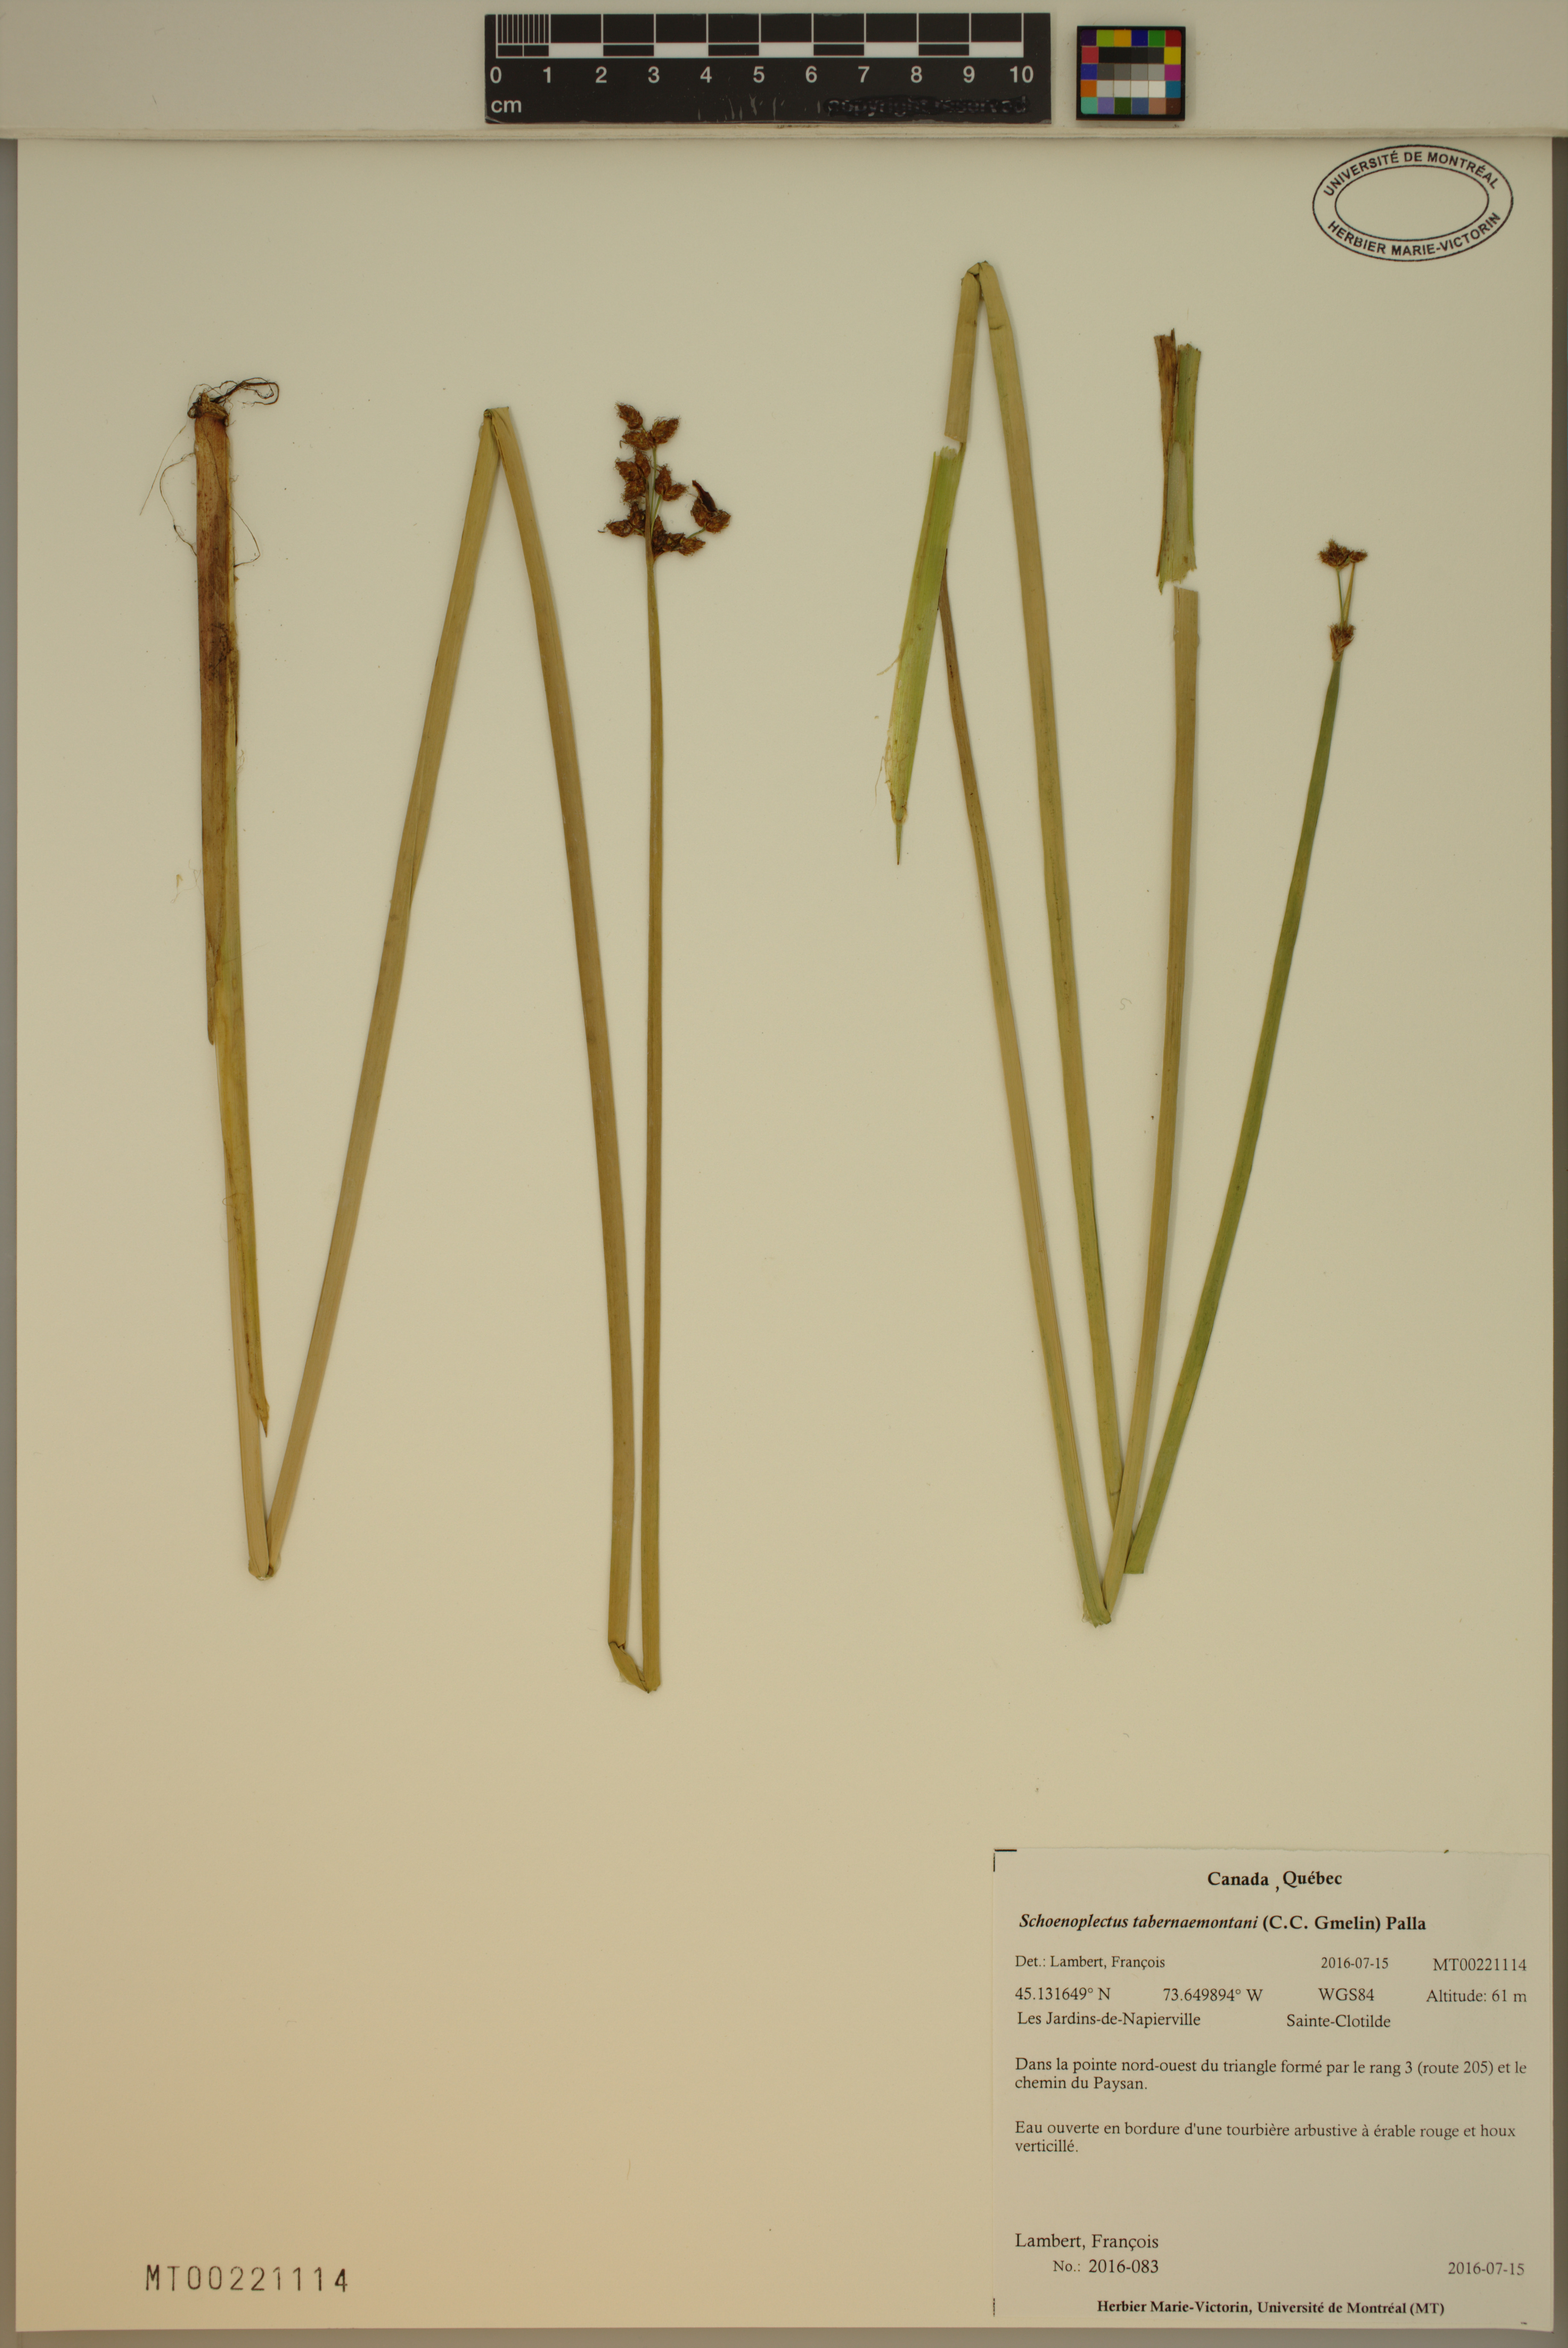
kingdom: Plantae
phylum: Tracheophyta
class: Liliopsida
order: Poales
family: Cyperaceae
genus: Schoenoplectus
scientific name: Schoenoplectus tabernaemontani
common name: Grey club-rush
